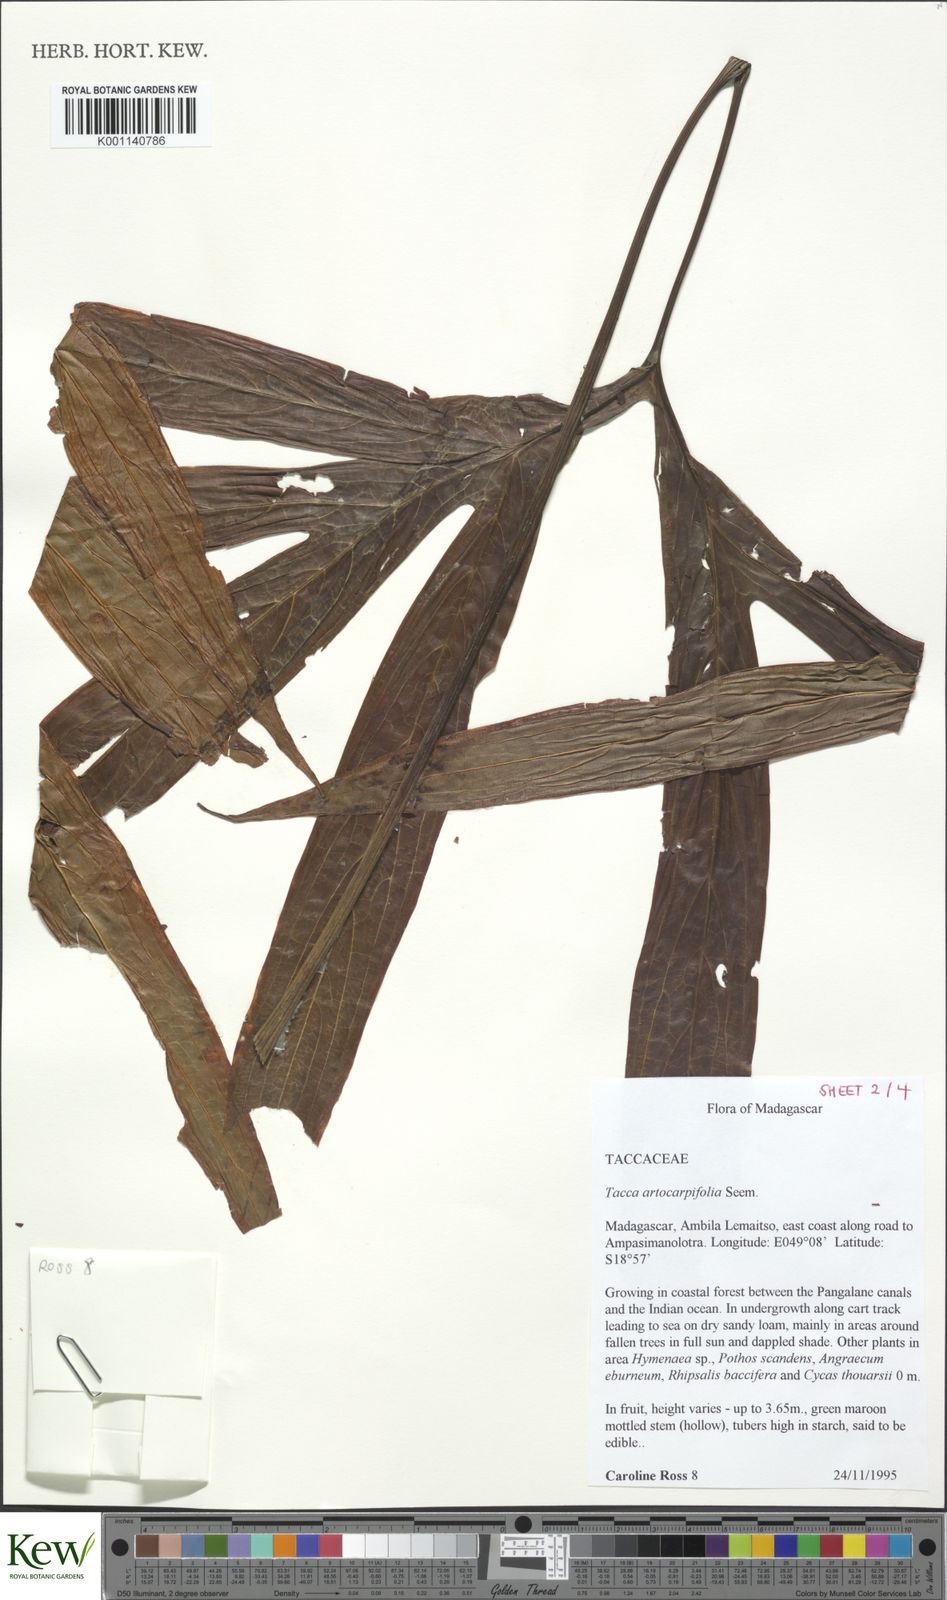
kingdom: Plantae
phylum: Tracheophyta
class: Liliopsida
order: Dioscoreales
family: Dioscoreaceae
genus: Tacca
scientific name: Tacca leontopetaloides
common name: Arrowroot
